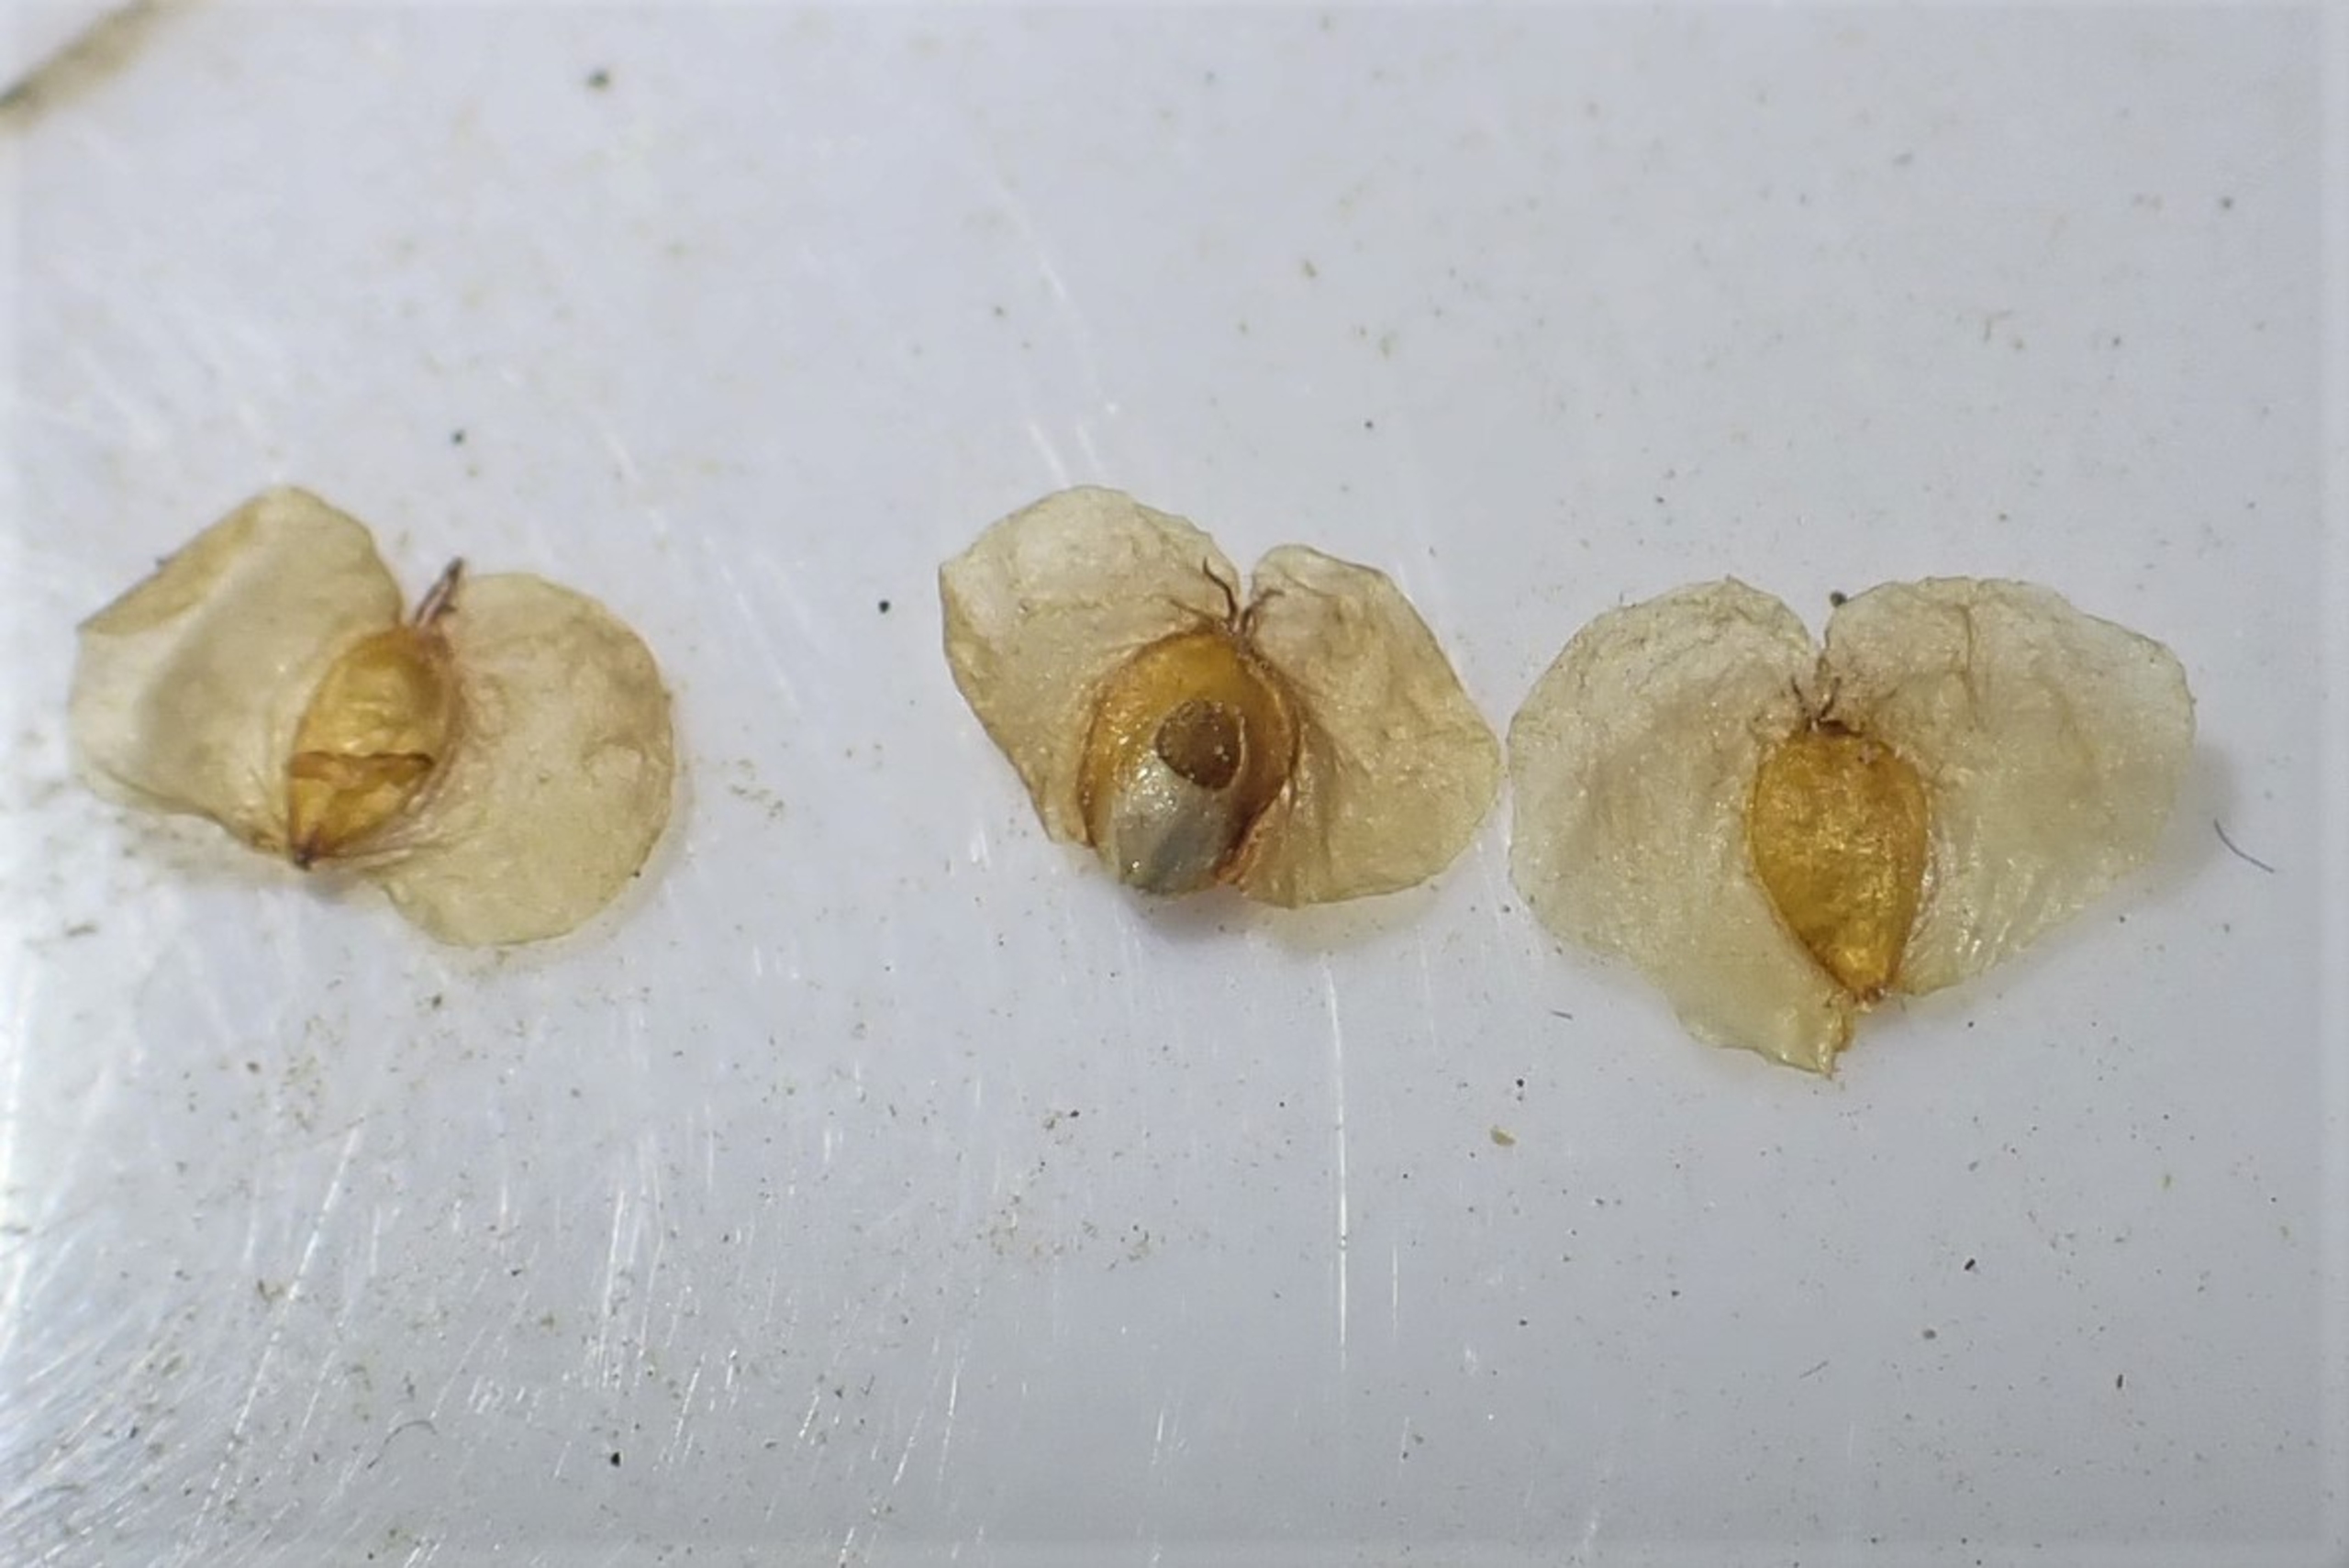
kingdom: Animalia
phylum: Arthropoda
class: Insecta
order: Diptera
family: Cecidomyiidae
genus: Semudobia
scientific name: Semudobia betulae
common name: Lille birkefrøgalmyg
